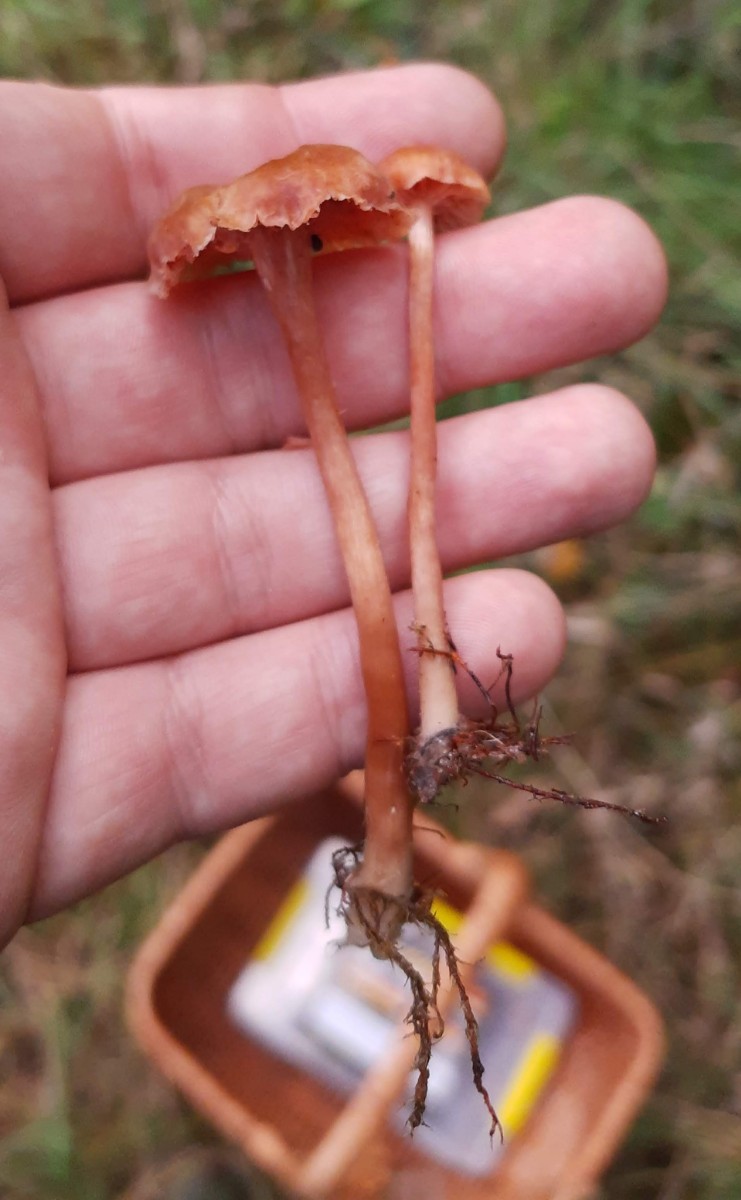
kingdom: Fungi
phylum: Basidiomycota
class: Agaricomycetes
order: Agaricales
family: Hydnangiaceae
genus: Laccaria
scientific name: Laccaria laccata
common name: rød ametysthat
